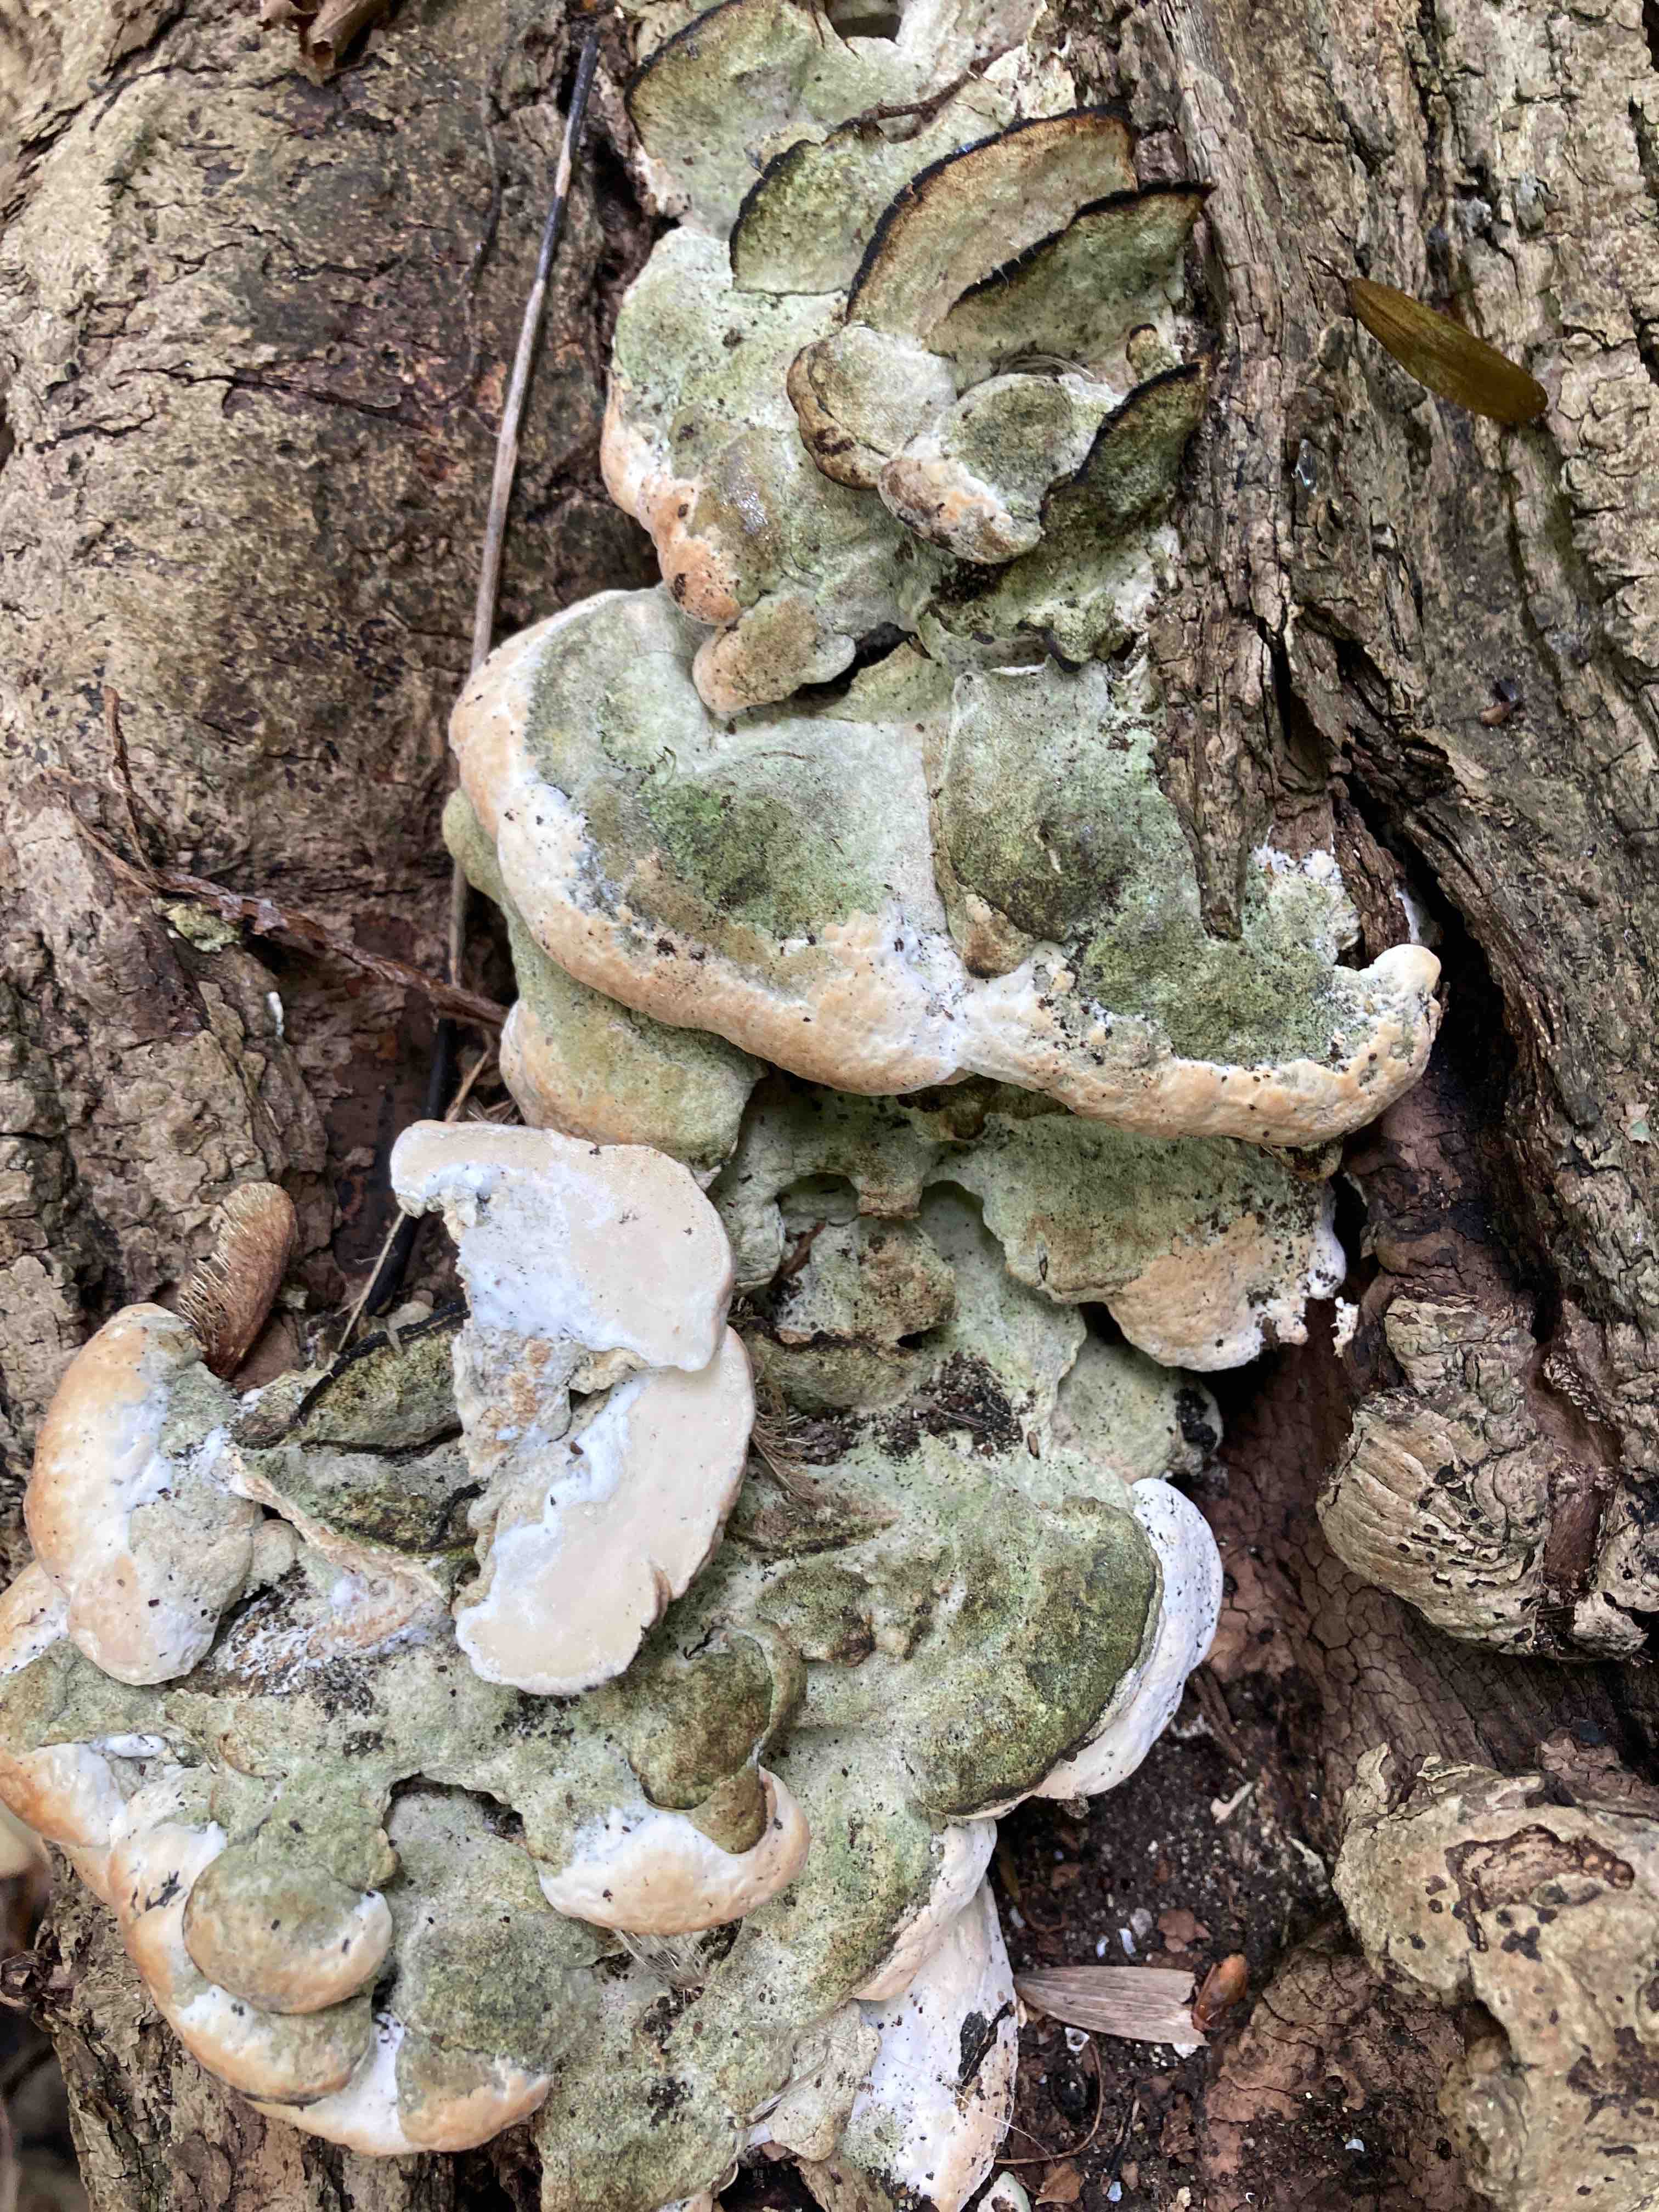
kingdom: Fungi
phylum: Basidiomycota
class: Agaricomycetes
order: Hymenochaetales
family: Oxyporaceae
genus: Oxyporus
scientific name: Oxyporus populinus
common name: sammenvokset trylleporesvamp
